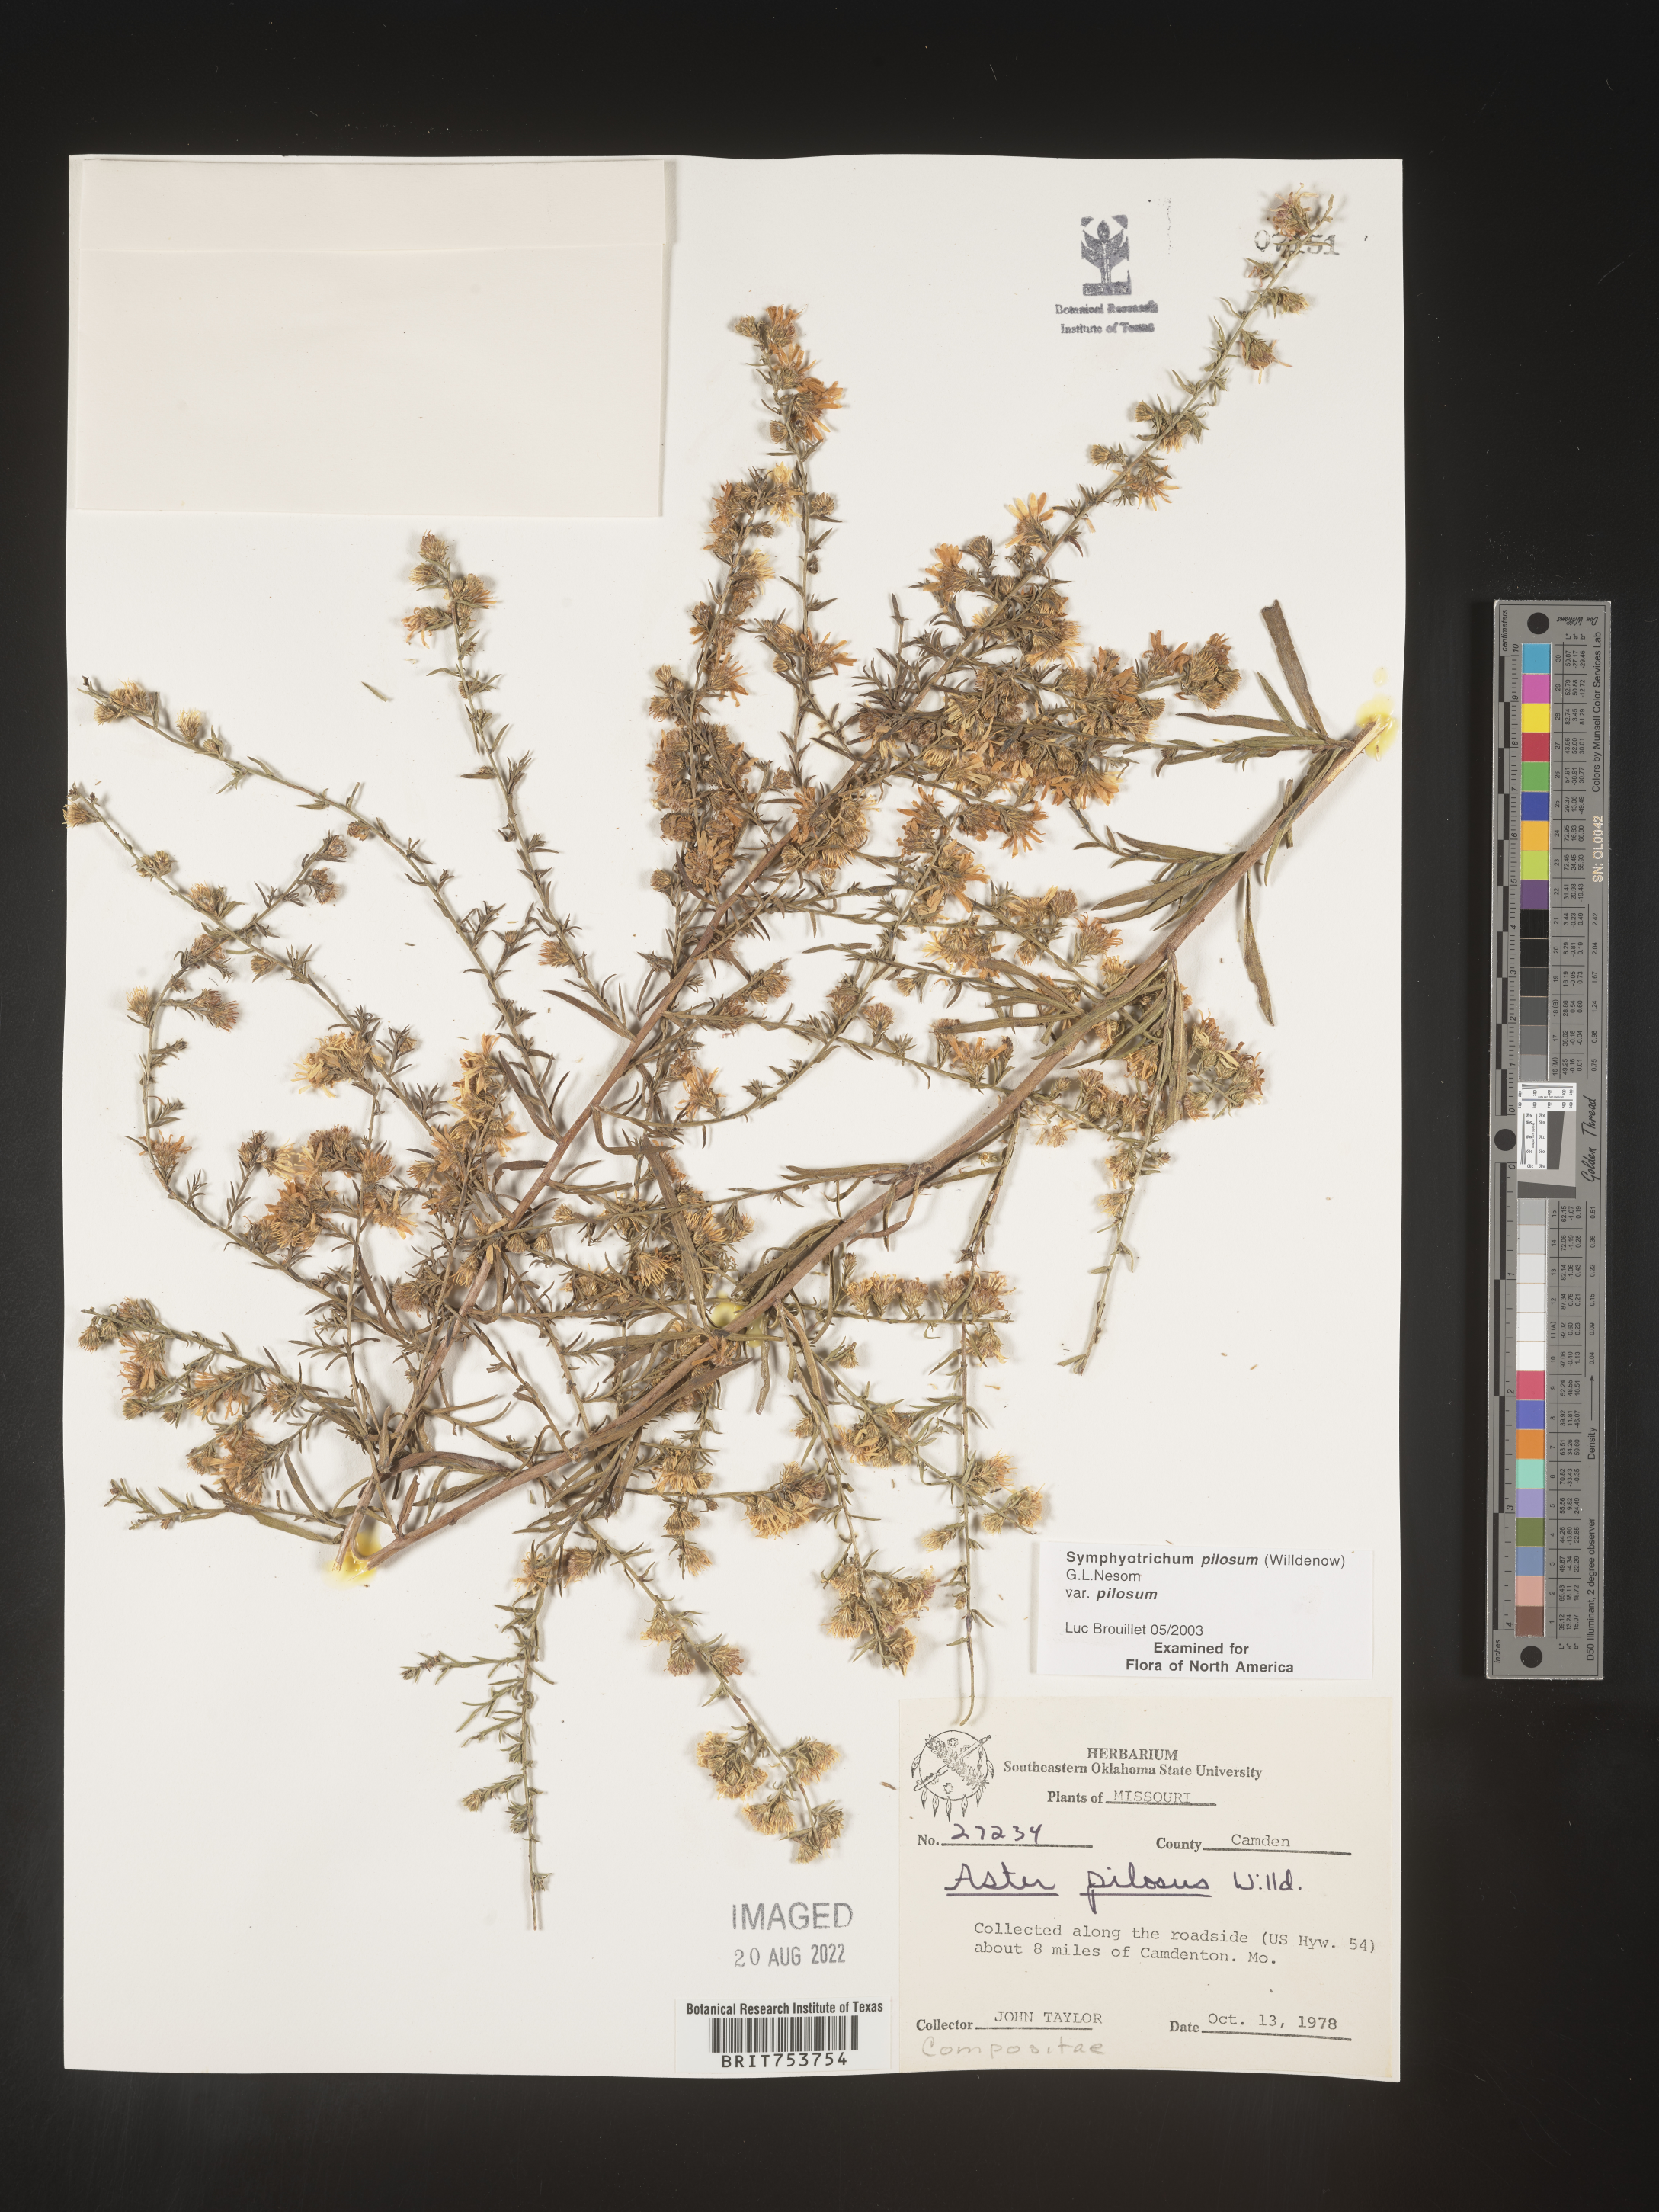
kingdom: Plantae
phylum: Tracheophyta
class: Magnoliopsida
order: Asterales
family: Asteraceae
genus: Symphyotrichum
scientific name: Symphyotrichum pilosum
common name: Awl aster
